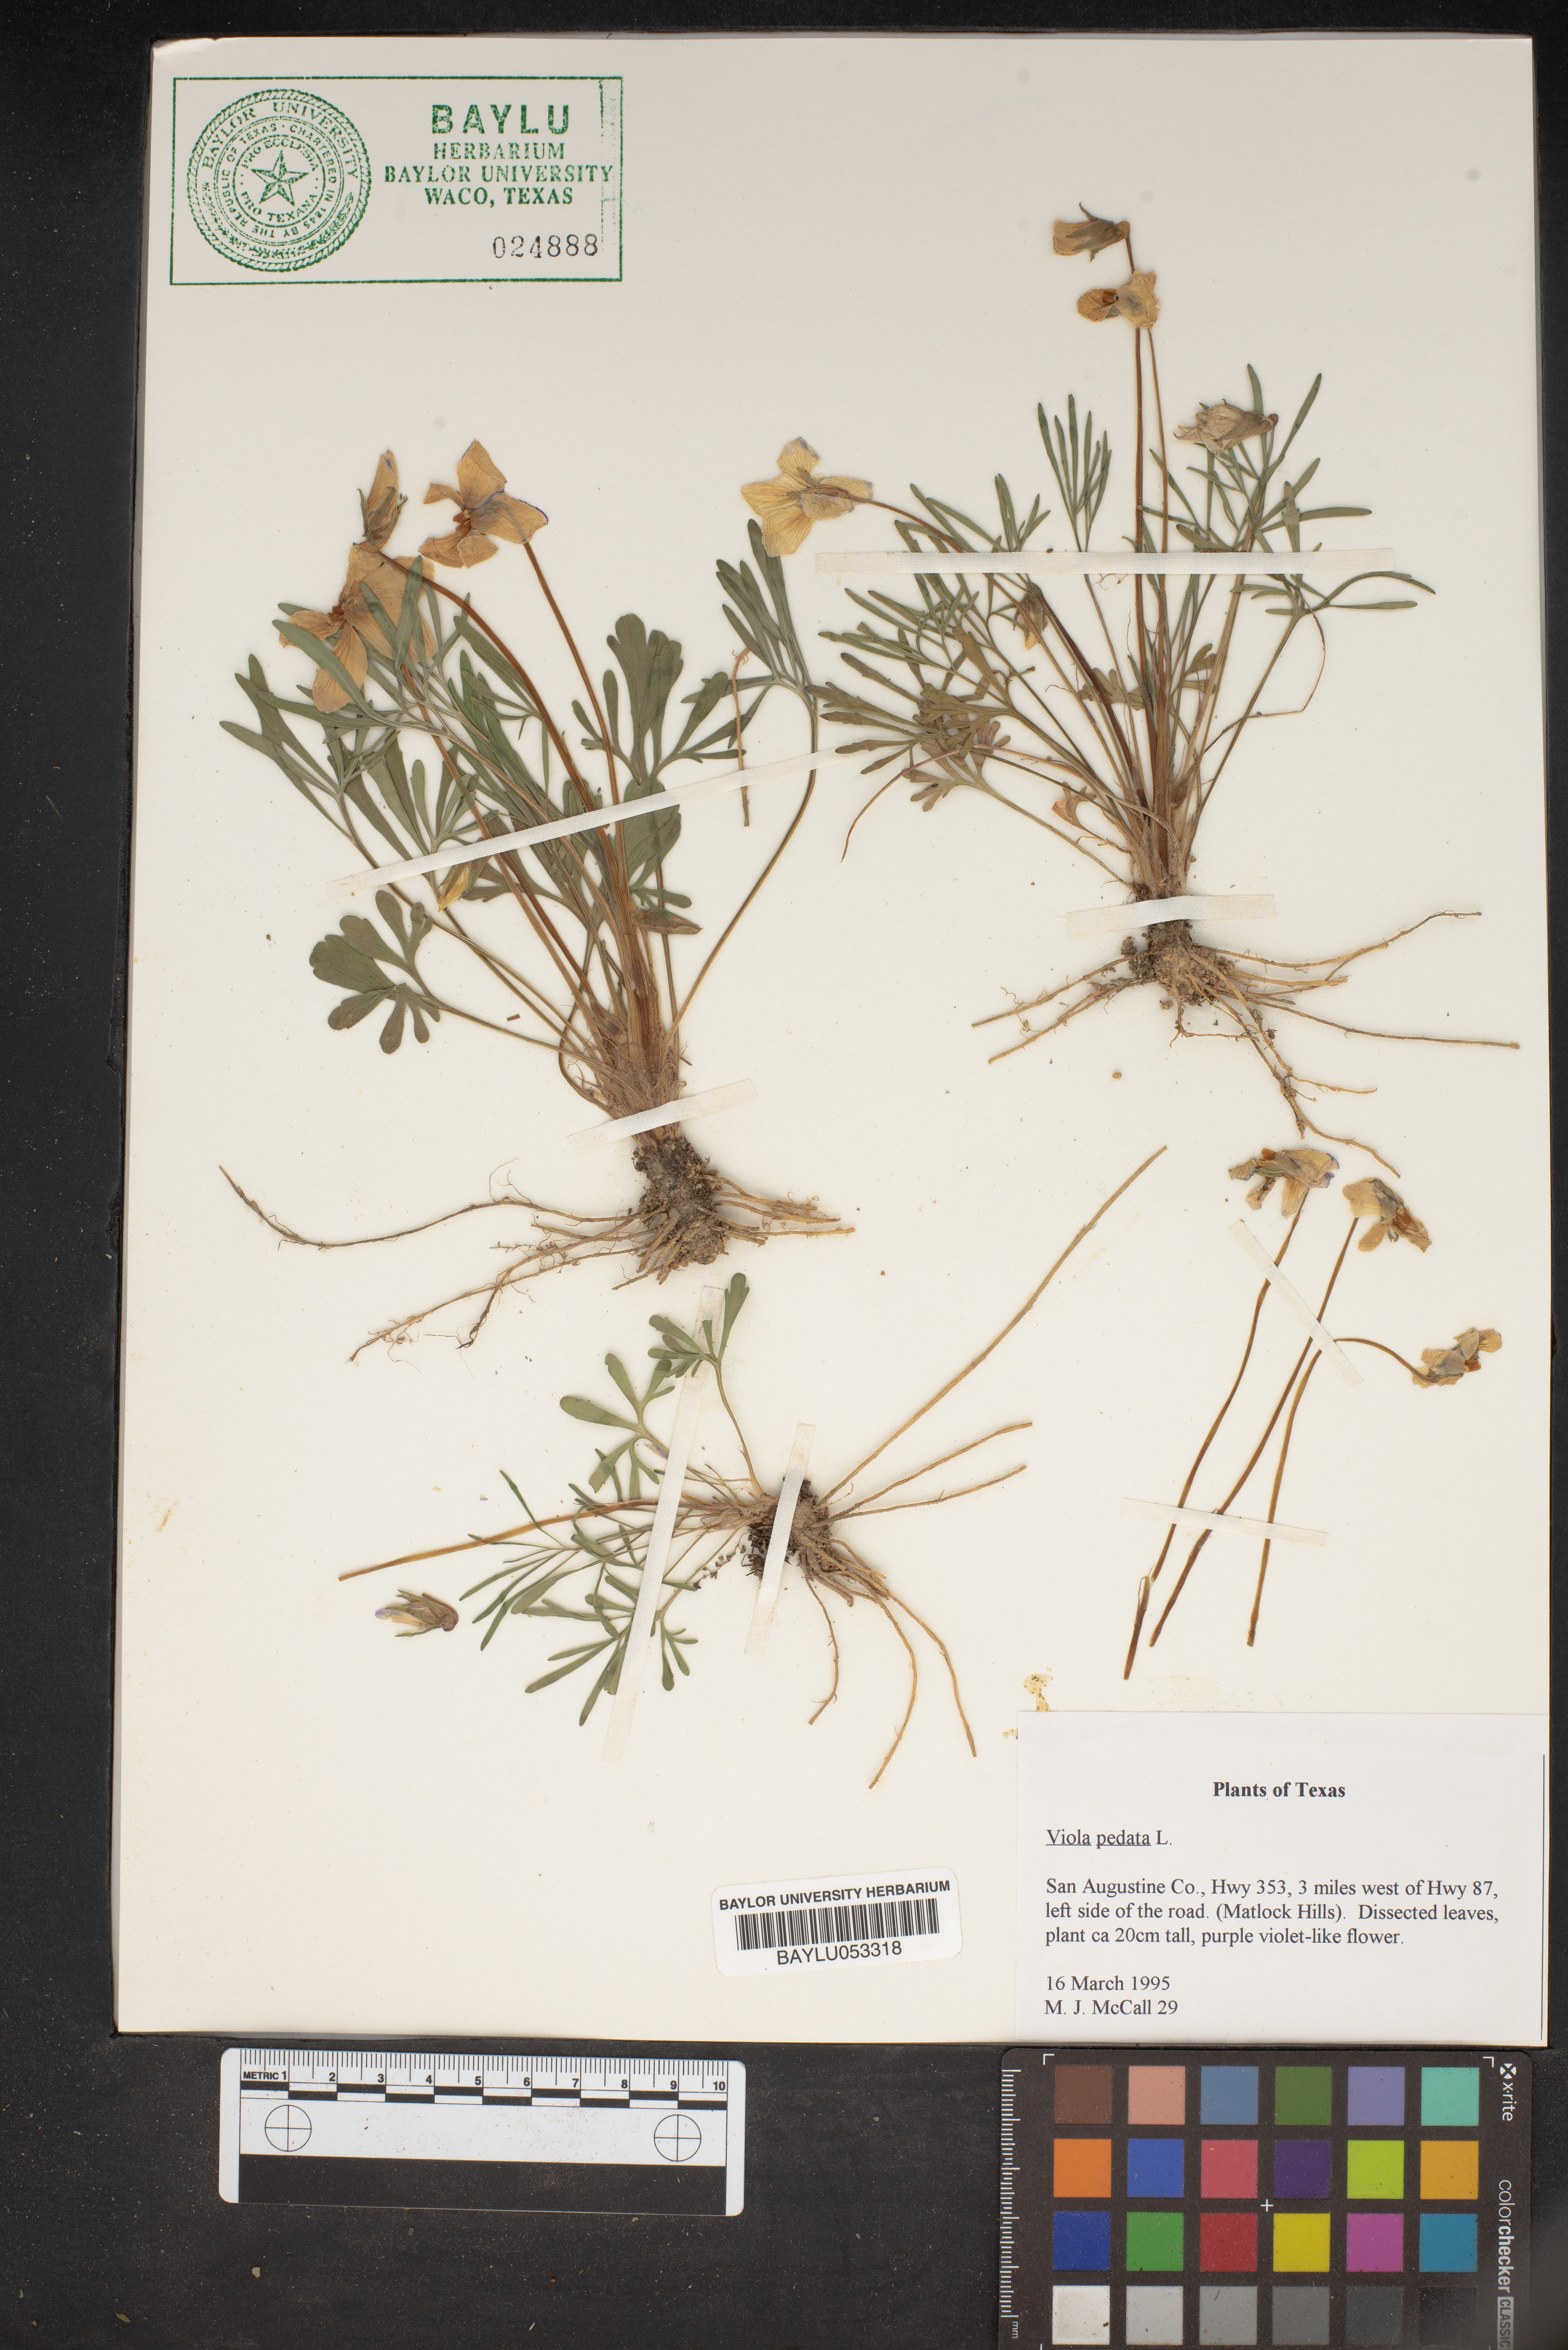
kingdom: Plantae
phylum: Tracheophyta
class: Magnoliopsida
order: Malpighiales
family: Violaceae
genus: Viola
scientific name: Viola pedata
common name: Pansy violet
